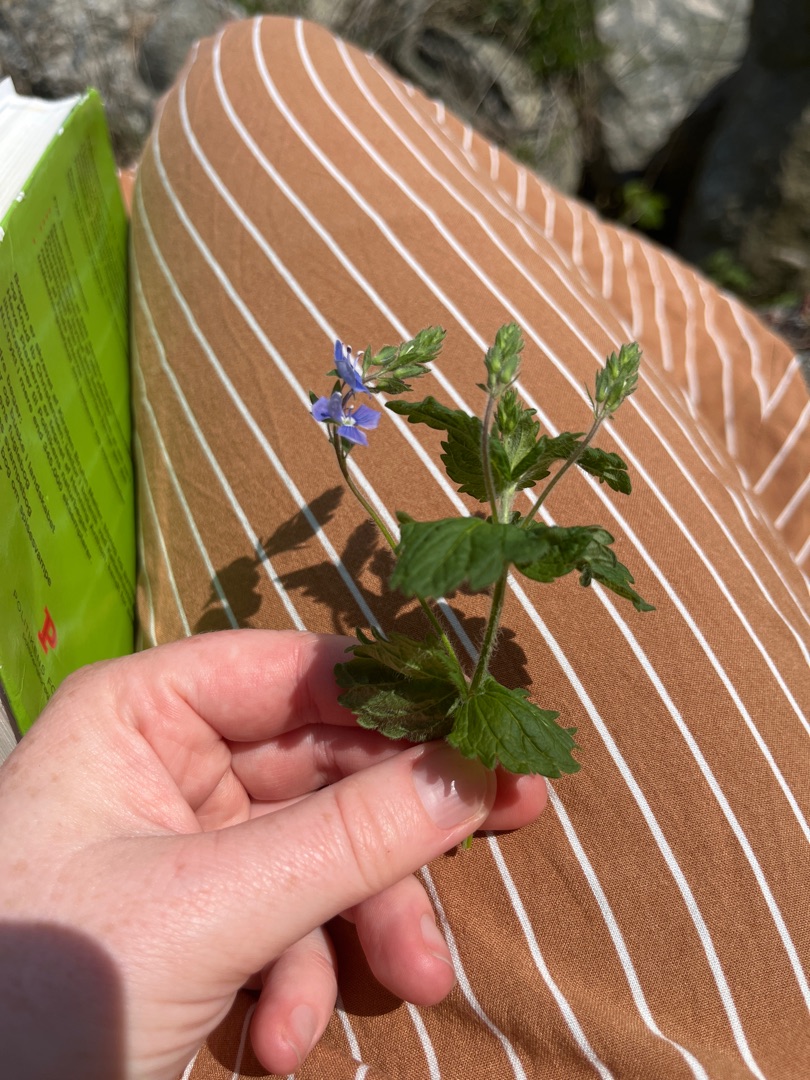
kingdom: Plantae
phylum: Tracheophyta
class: Magnoliopsida
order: Lamiales
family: Plantaginaceae
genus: Veronica
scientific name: Veronica chamaedrys
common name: Tveskægget ærenpris
